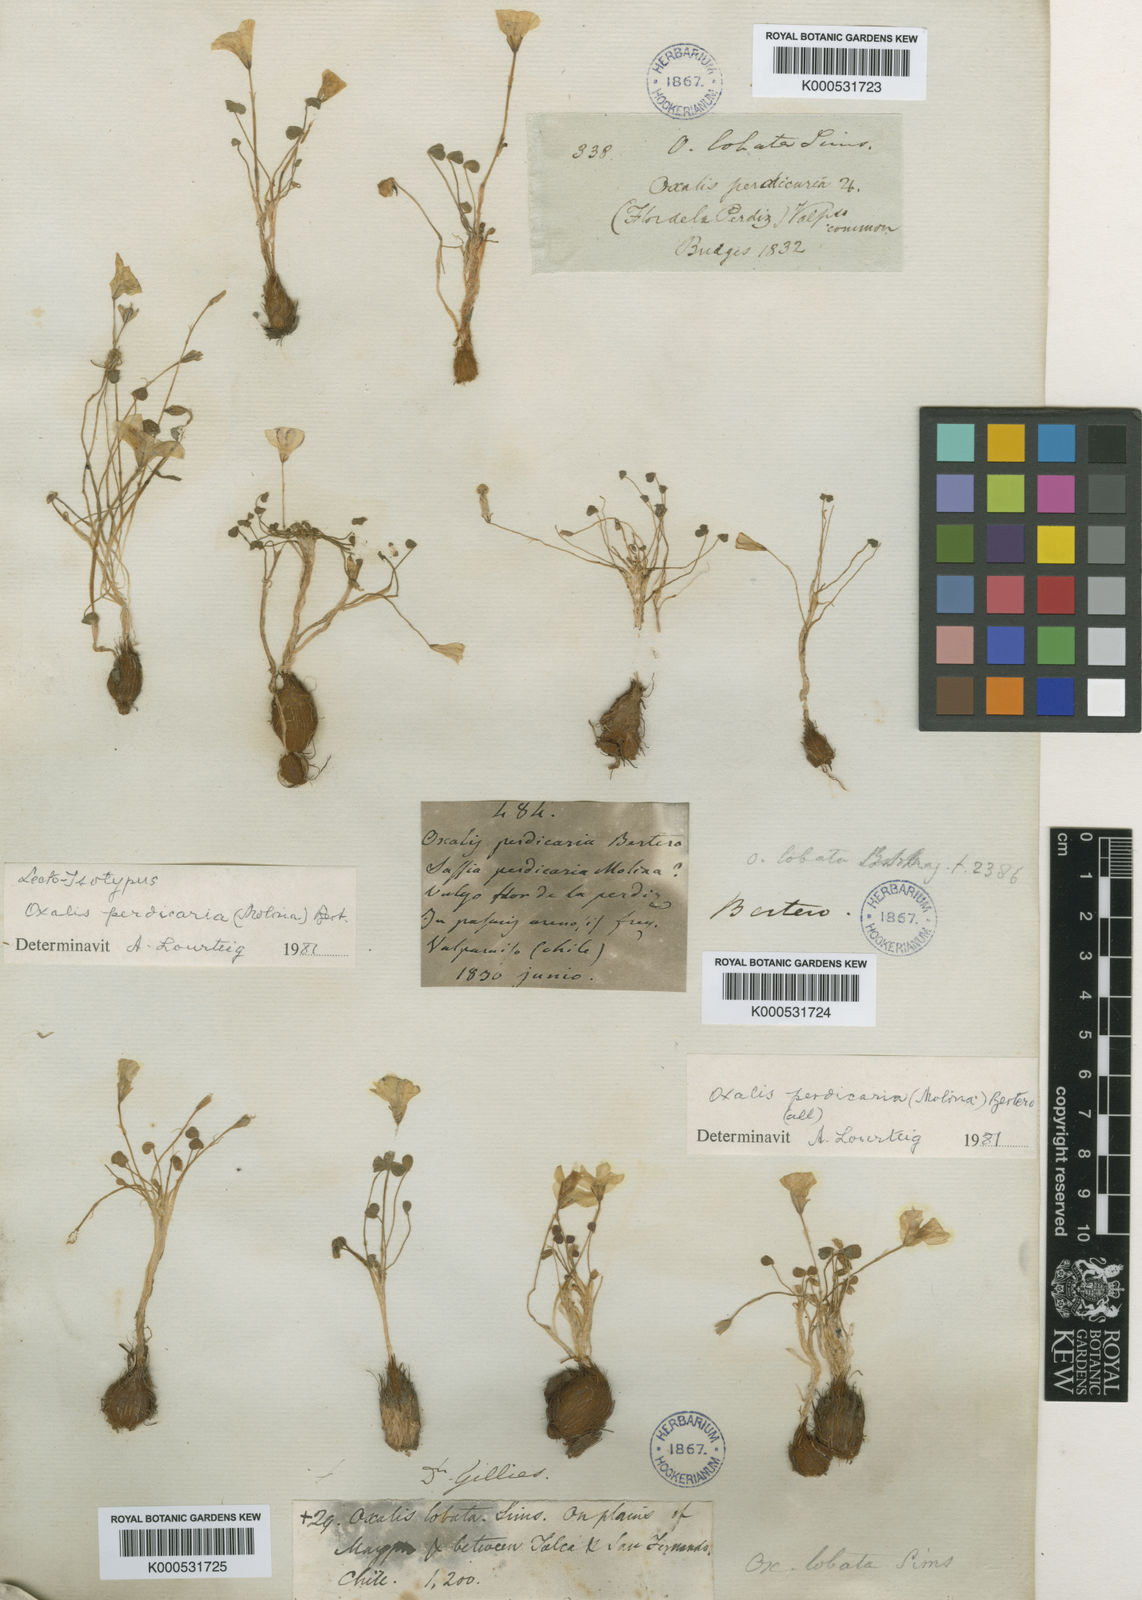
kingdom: Plantae
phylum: Tracheophyta
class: Magnoliopsida
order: Oxalidales
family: Oxalidaceae
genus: Oxalis
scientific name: Oxalis perdicaria
